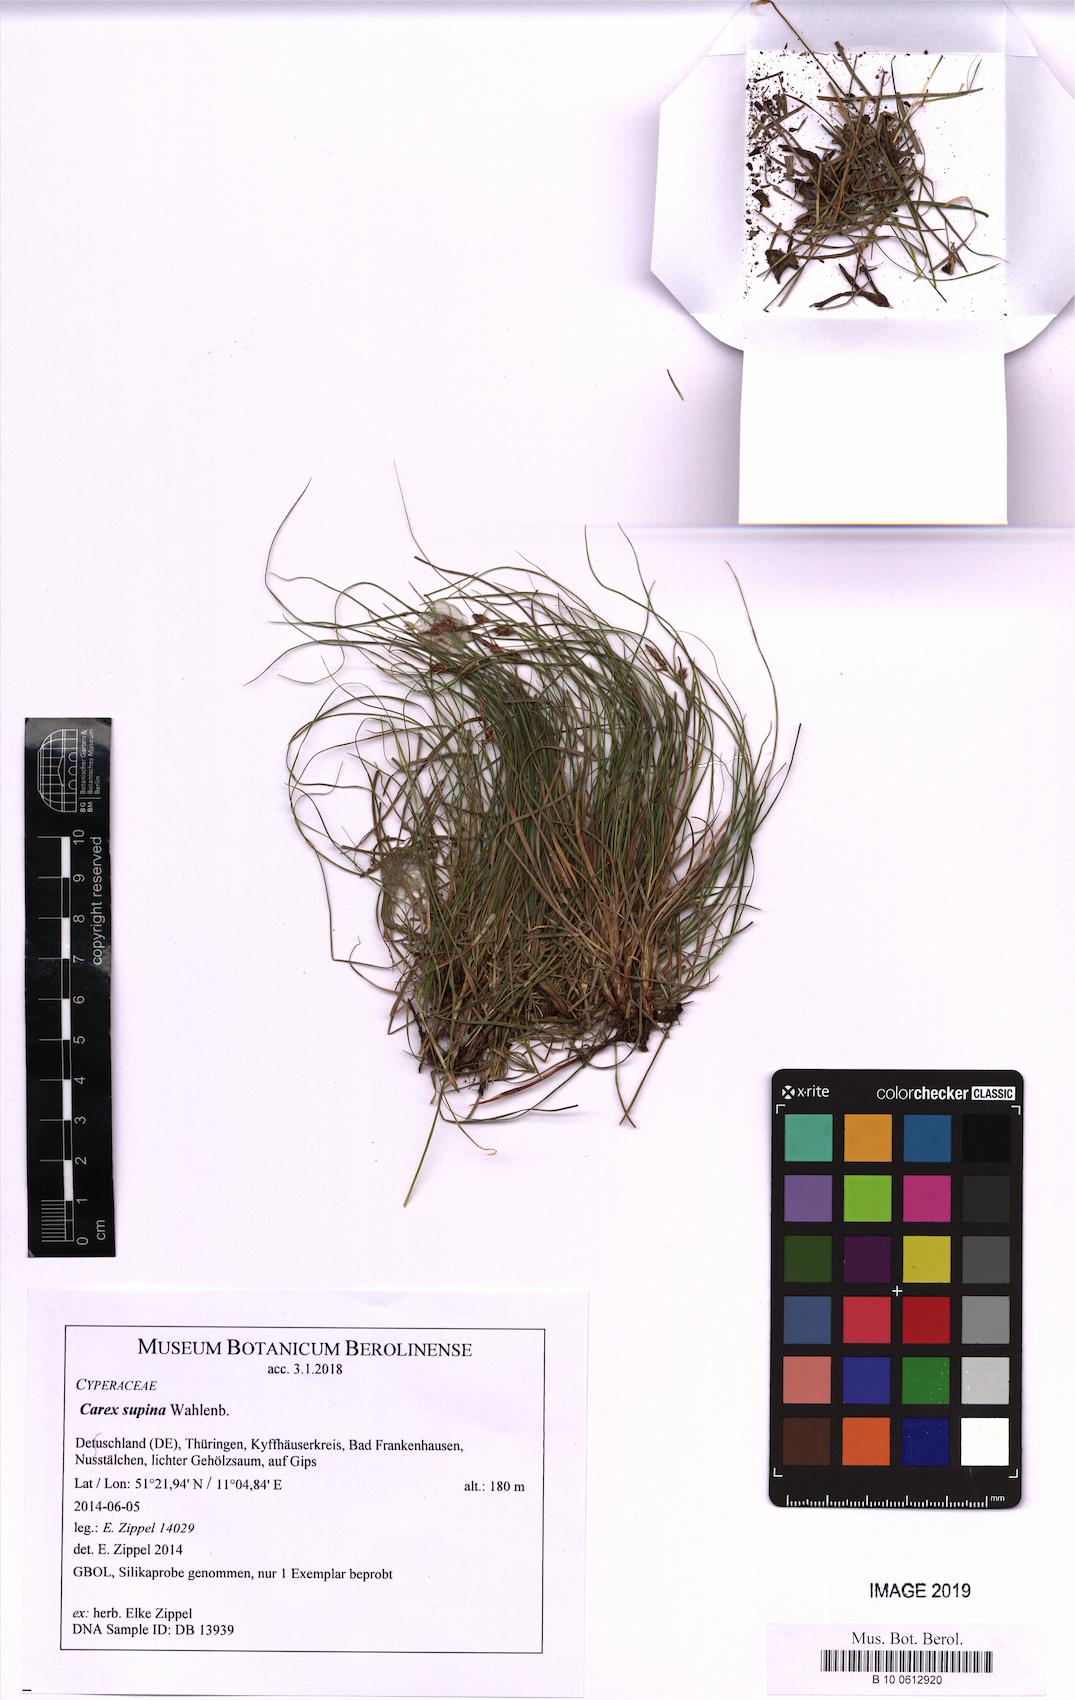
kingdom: Plantae
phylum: Tracheophyta
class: Liliopsida
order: Poales
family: Cyperaceae
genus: Carex
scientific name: Carex supina
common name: Lying-back sedge
